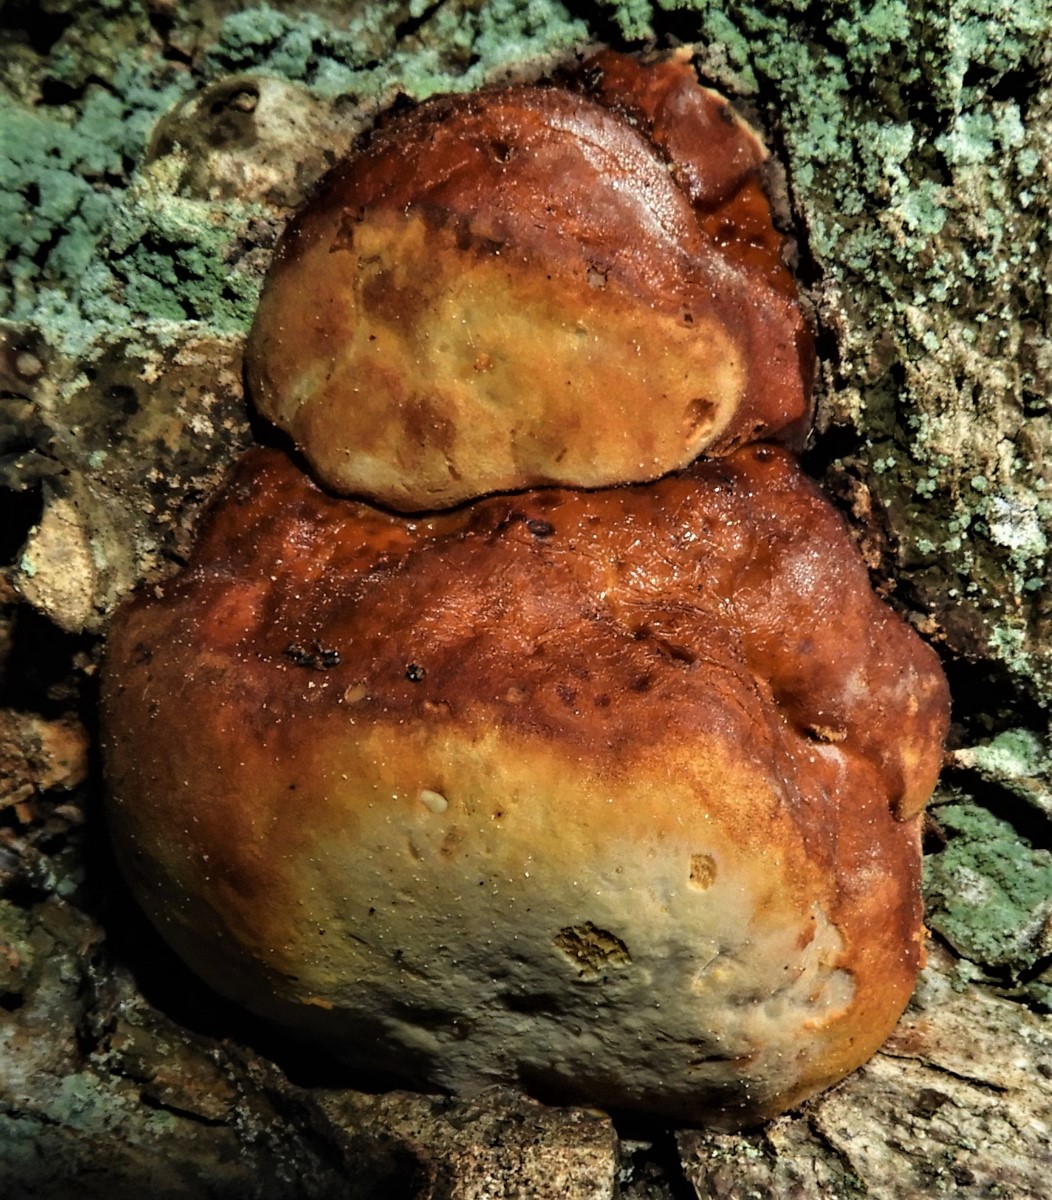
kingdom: Fungi
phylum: Basidiomycota
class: Agaricomycetes
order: Polyporales
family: Fomitopsidaceae
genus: Fomitopsis
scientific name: Fomitopsis pinicola
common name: randbæltet hovporesvamp
